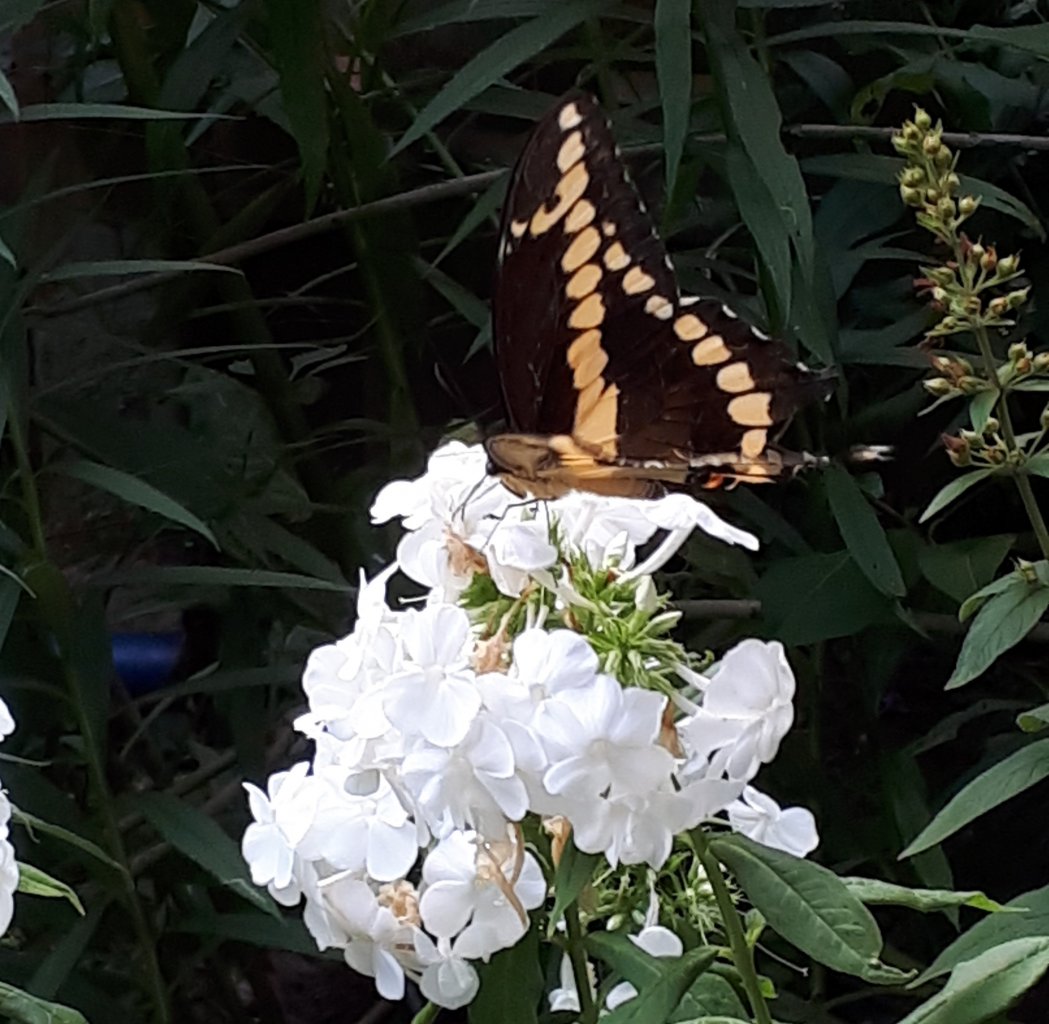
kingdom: Animalia
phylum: Arthropoda
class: Insecta
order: Lepidoptera
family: Papilionidae
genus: Papilio
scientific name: Papilio cresphontes
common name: Eastern Giant Swallowtail
